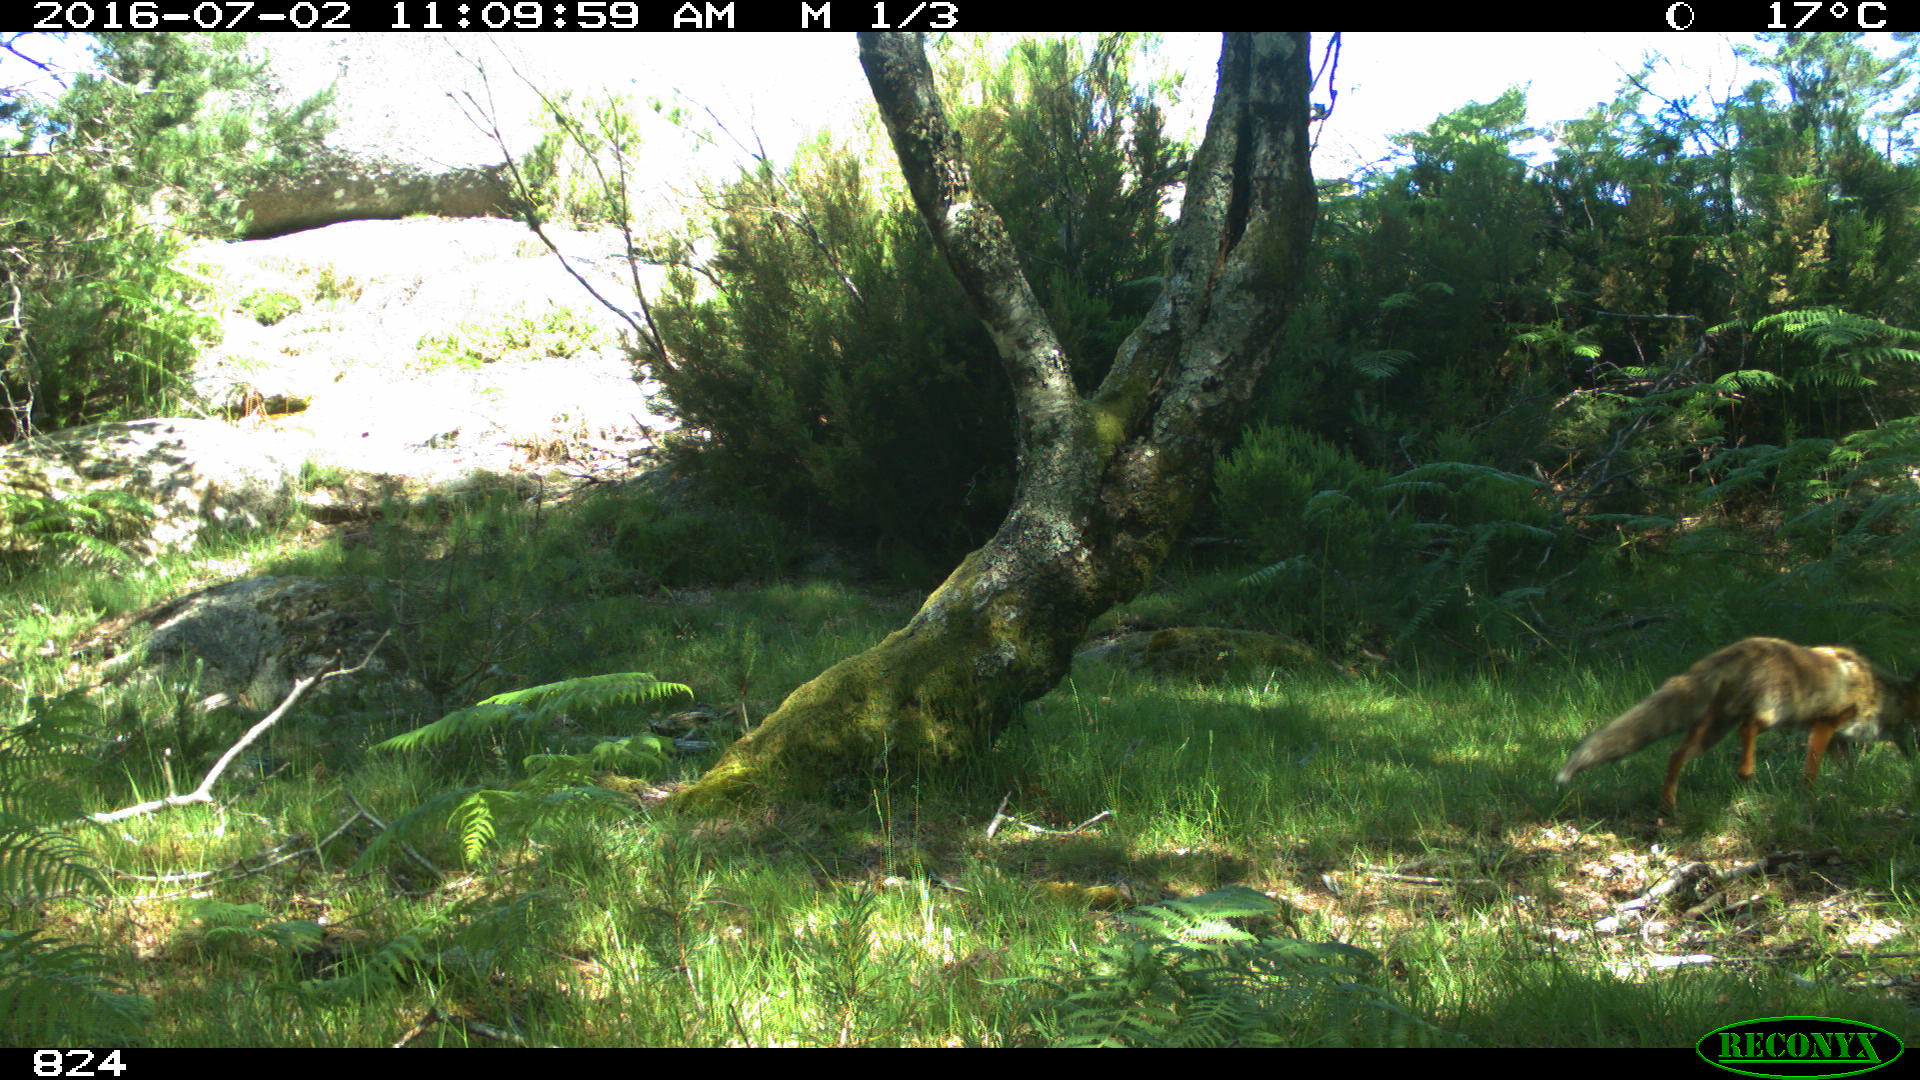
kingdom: Animalia
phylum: Chordata
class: Mammalia
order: Carnivora
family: Canidae
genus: Vulpes
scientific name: Vulpes vulpes
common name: Red fox
